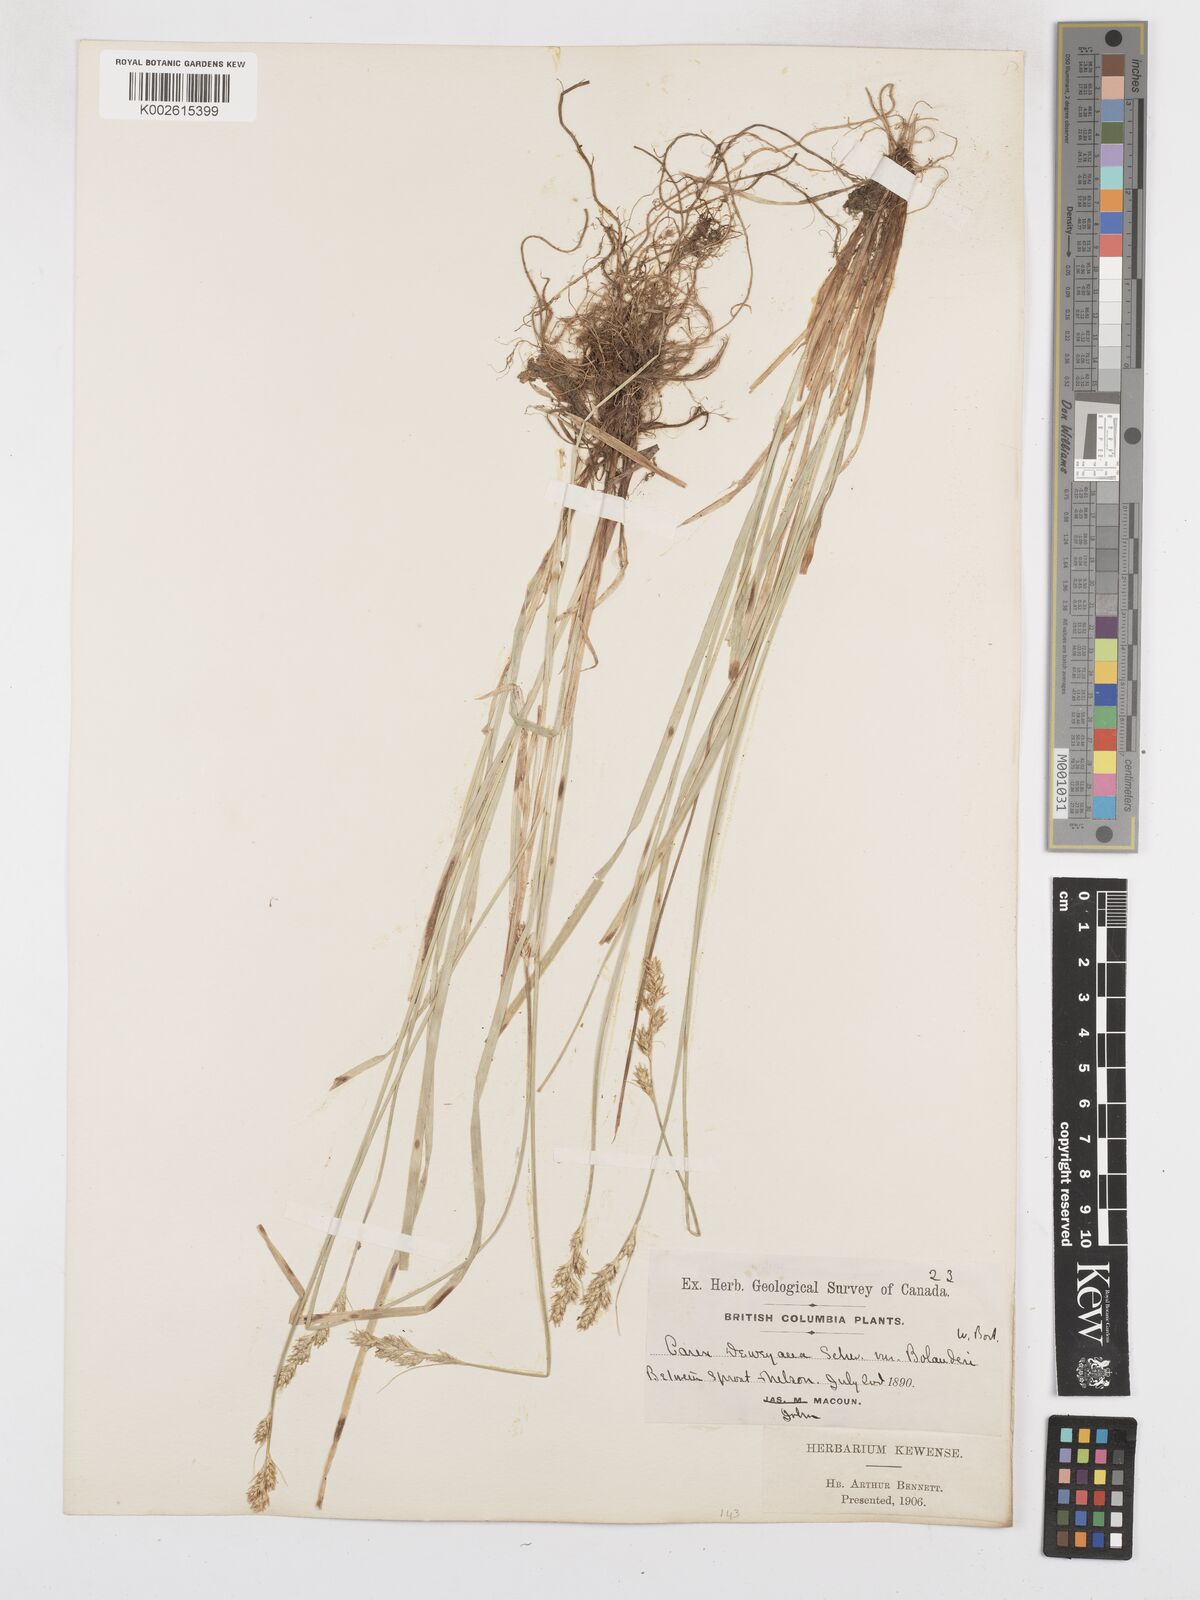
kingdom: Plantae
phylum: Tracheophyta
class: Liliopsida
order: Poales
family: Cyperaceae
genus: Carex
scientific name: Carex bolanderi
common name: Bolander's sedge
